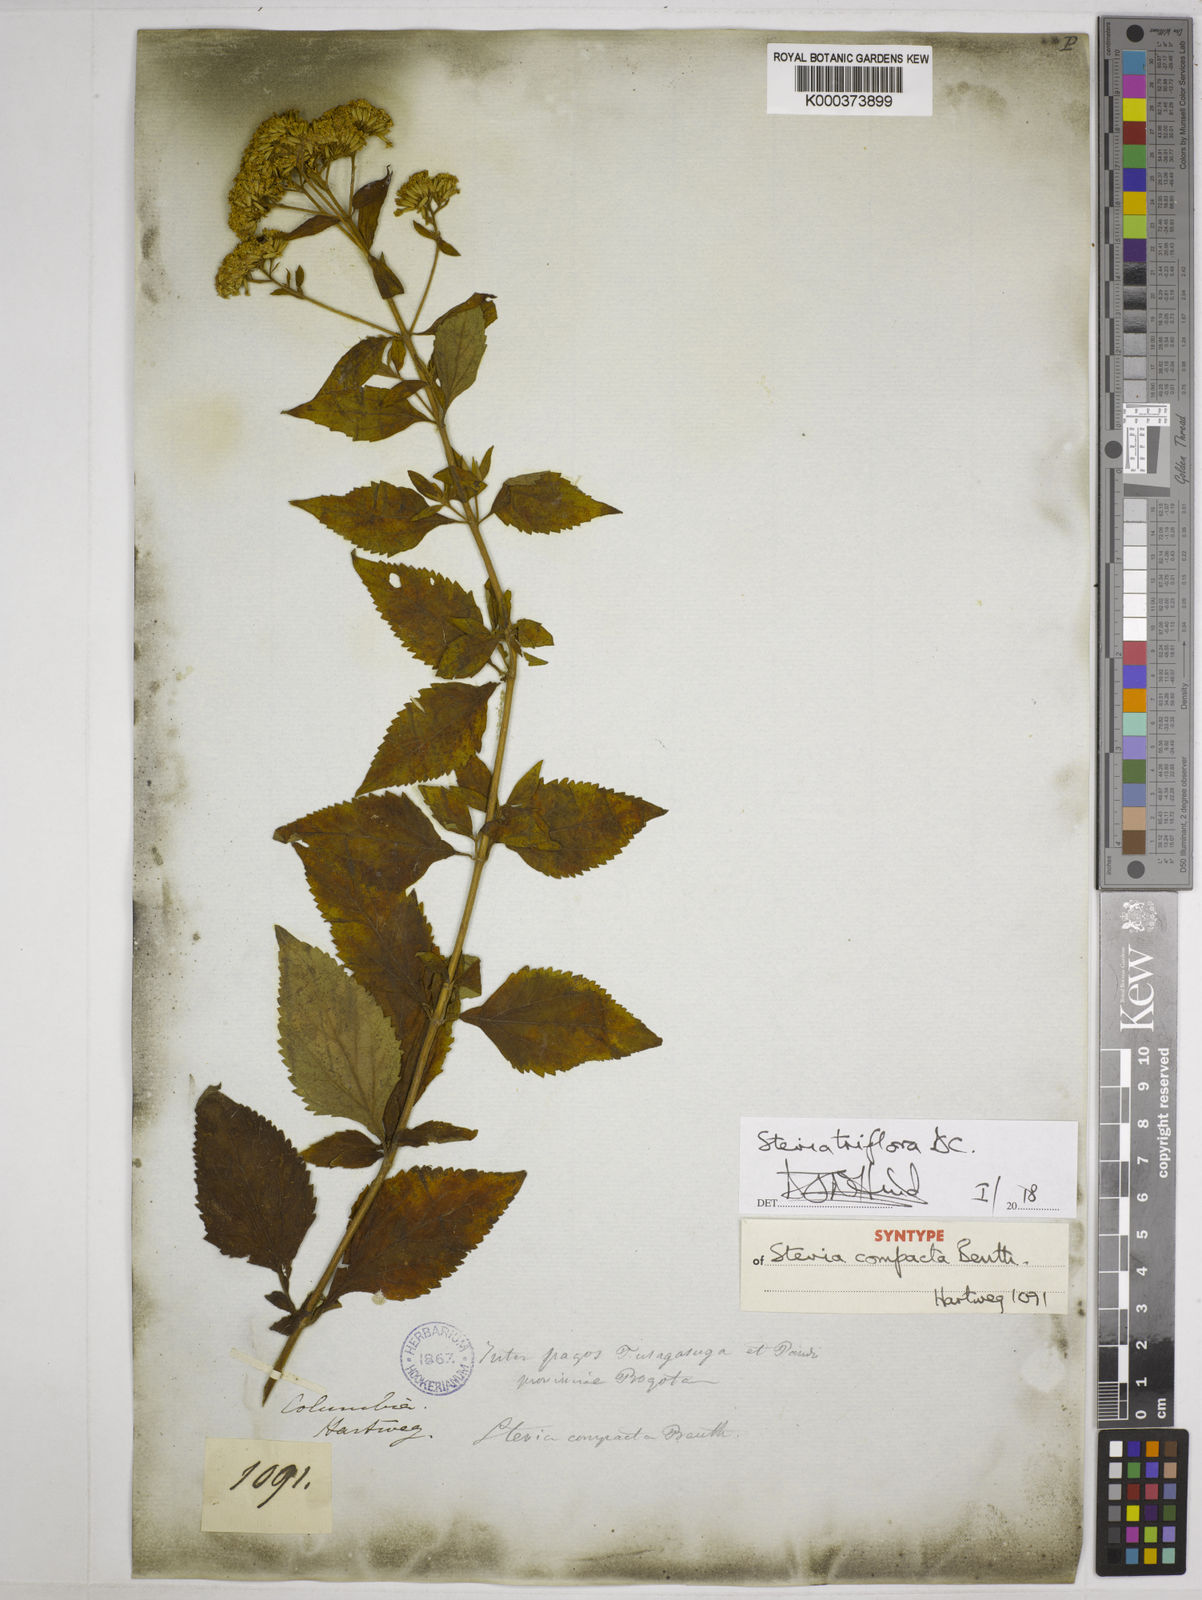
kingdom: Plantae
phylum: Tracheophyta
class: Magnoliopsida
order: Asterales
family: Asteraceae
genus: Stevia
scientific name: Stevia triflora
